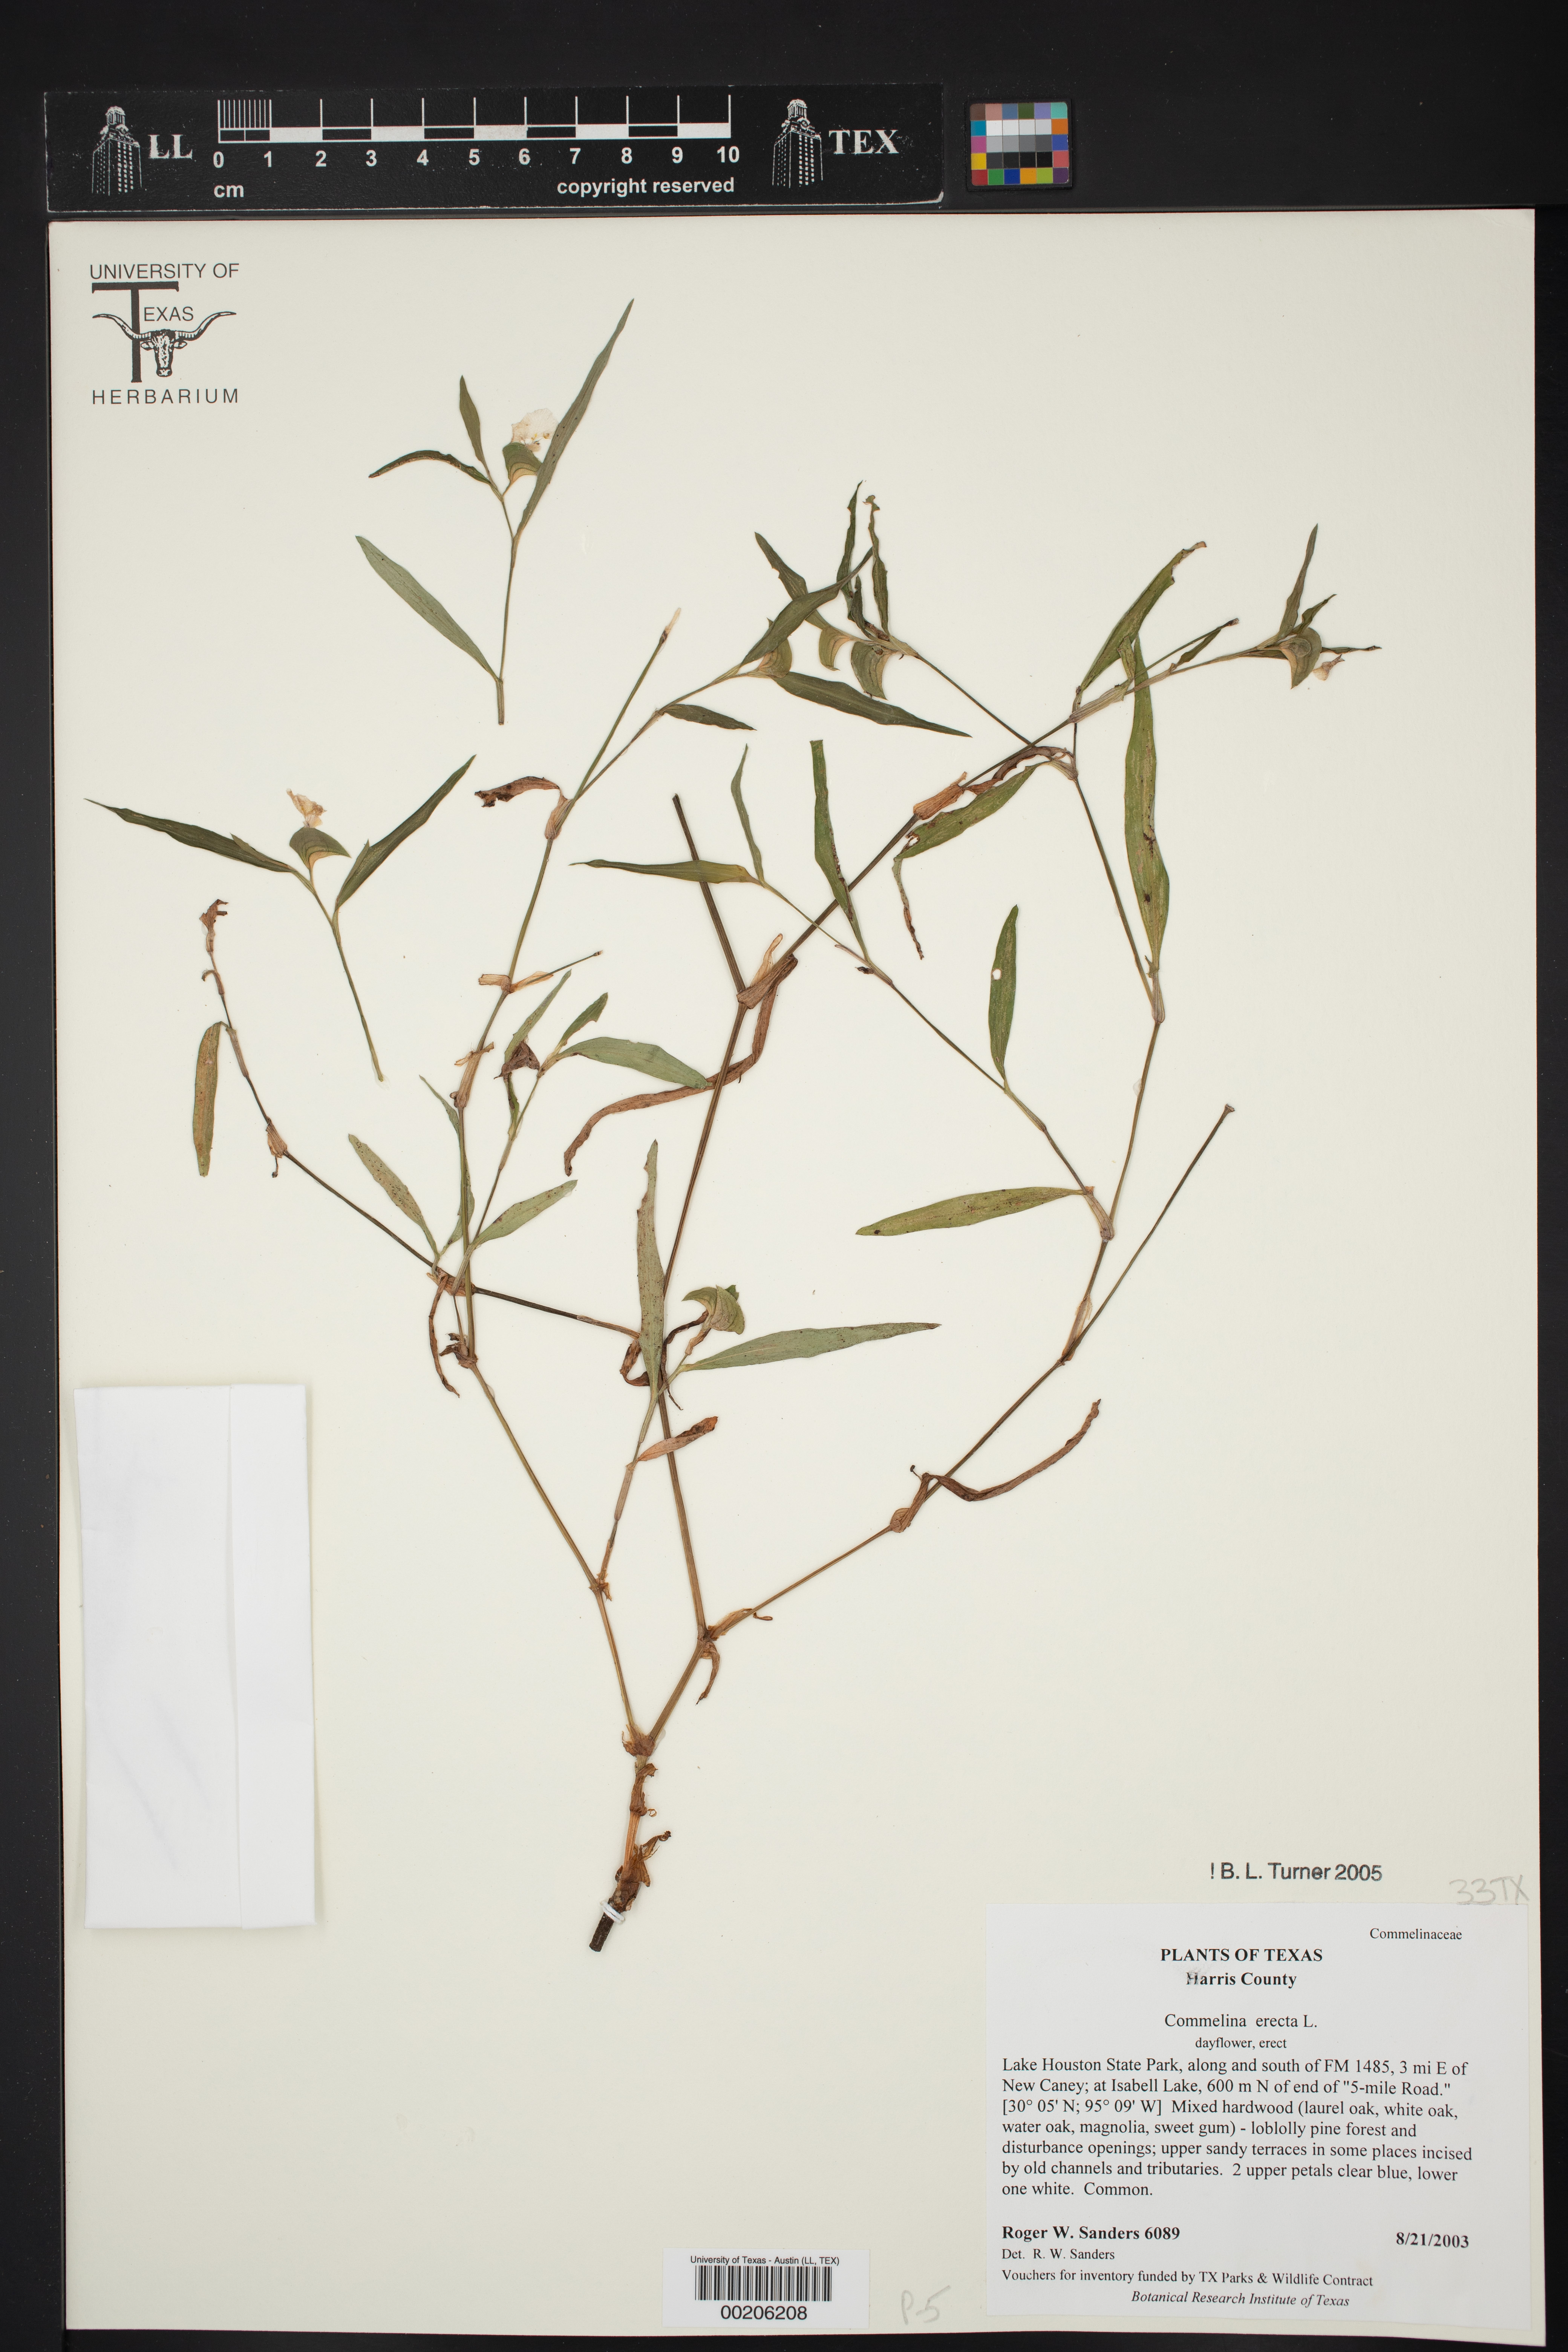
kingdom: Plantae
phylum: Tracheophyta
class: Liliopsida
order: Commelinales
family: Commelinaceae
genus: Commelina
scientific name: Commelina erecta
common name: Blousel blommetjie
